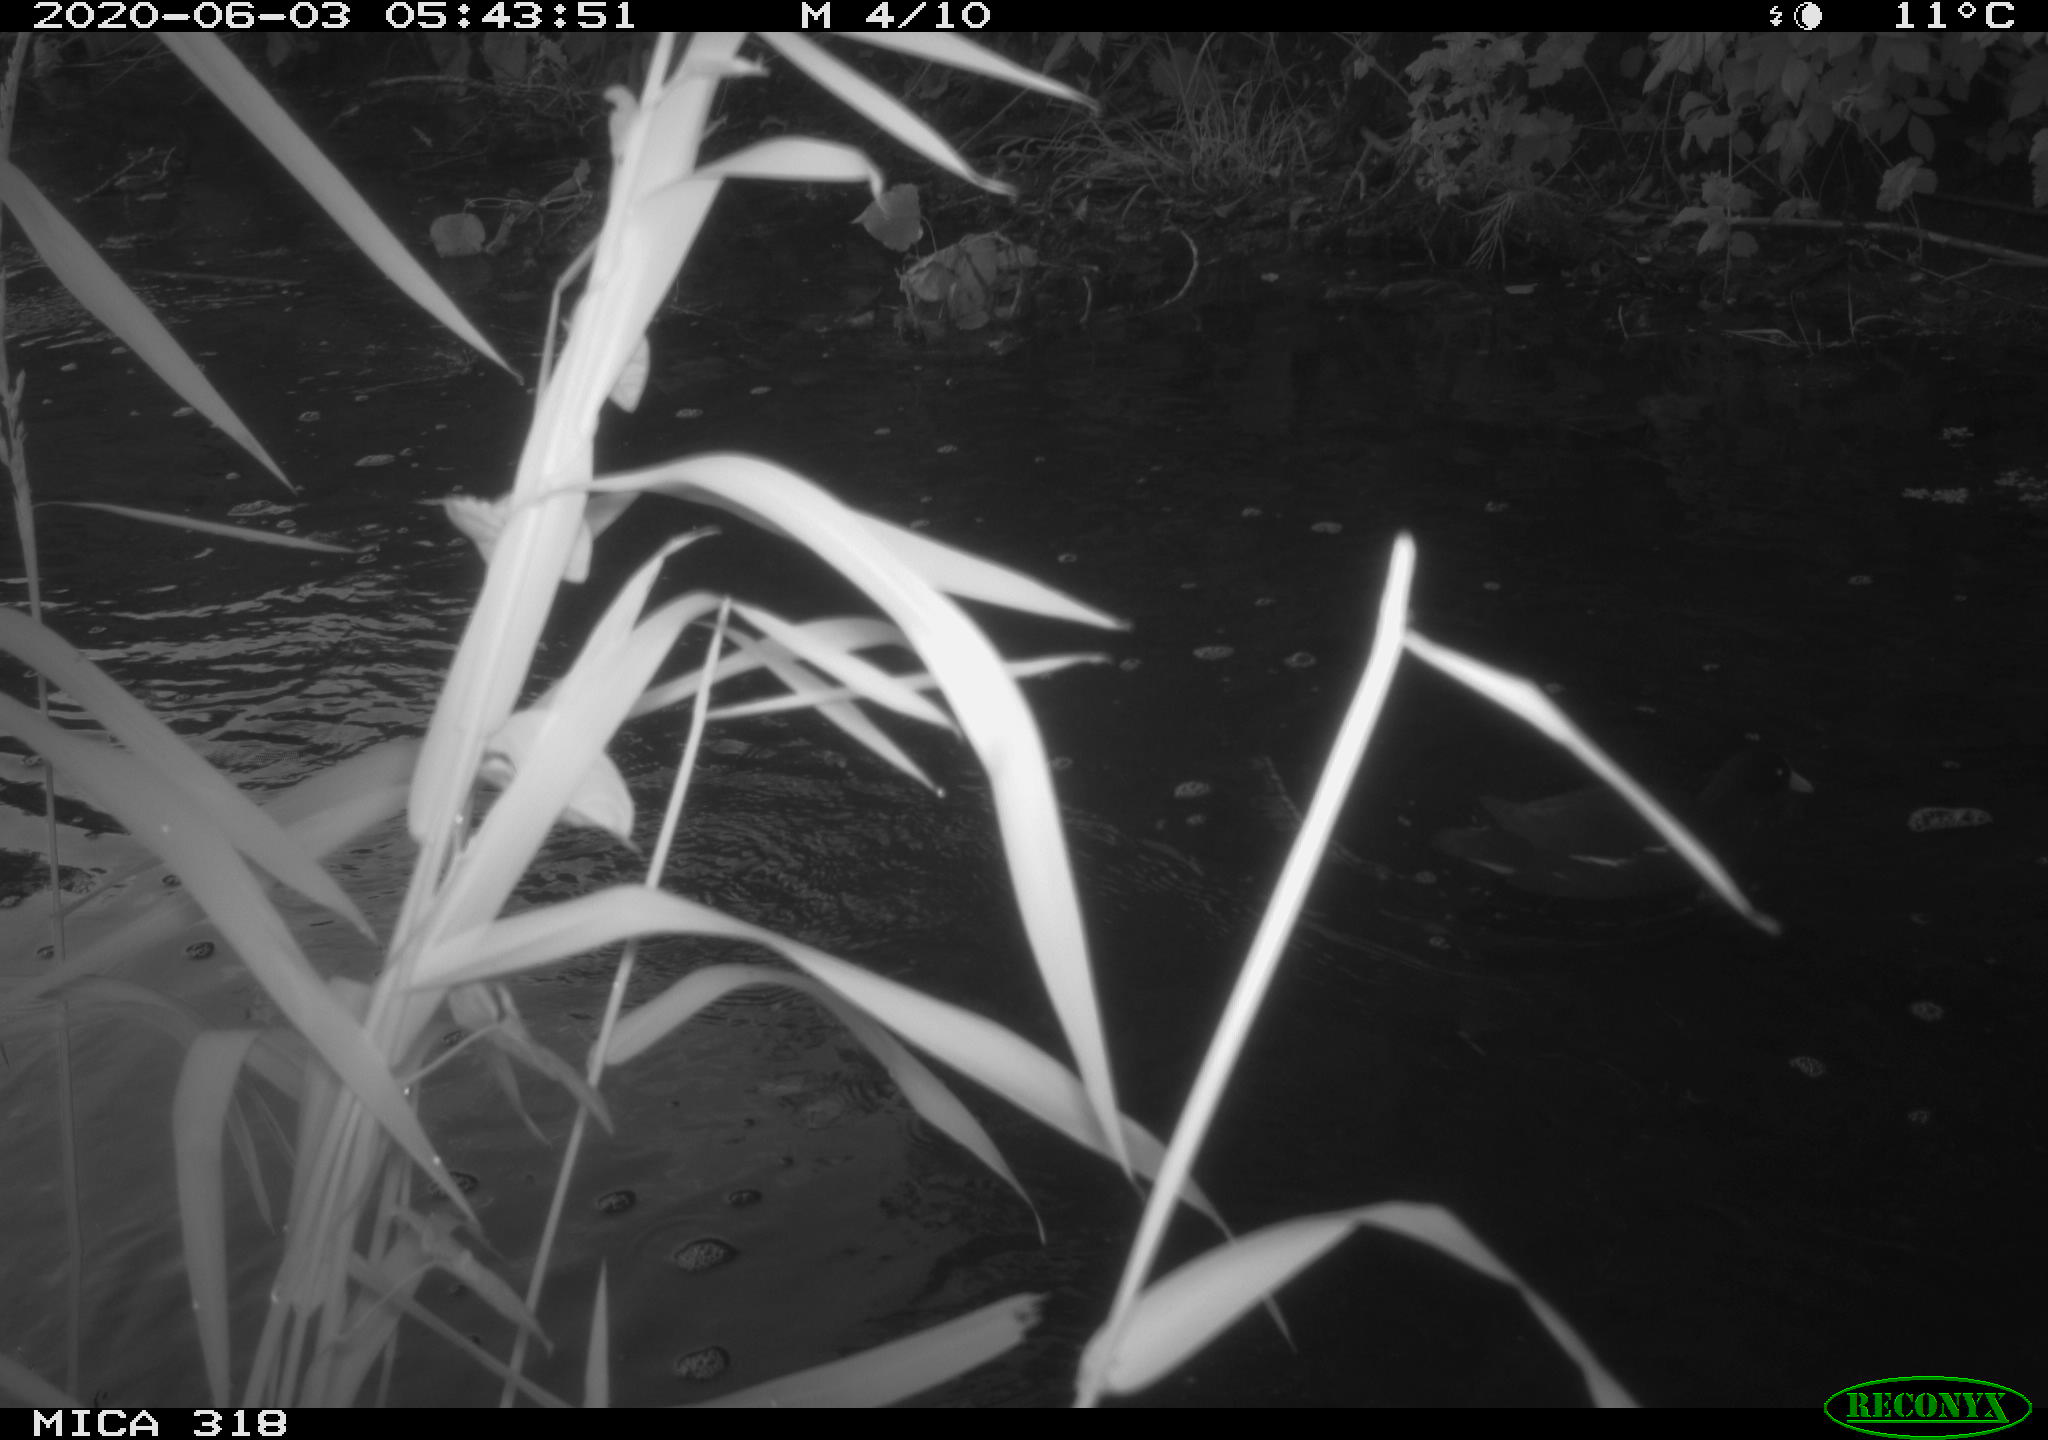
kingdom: Animalia
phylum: Chordata
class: Aves
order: Gruiformes
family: Rallidae
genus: Gallinula
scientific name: Gallinula chloropus
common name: Common moorhen
